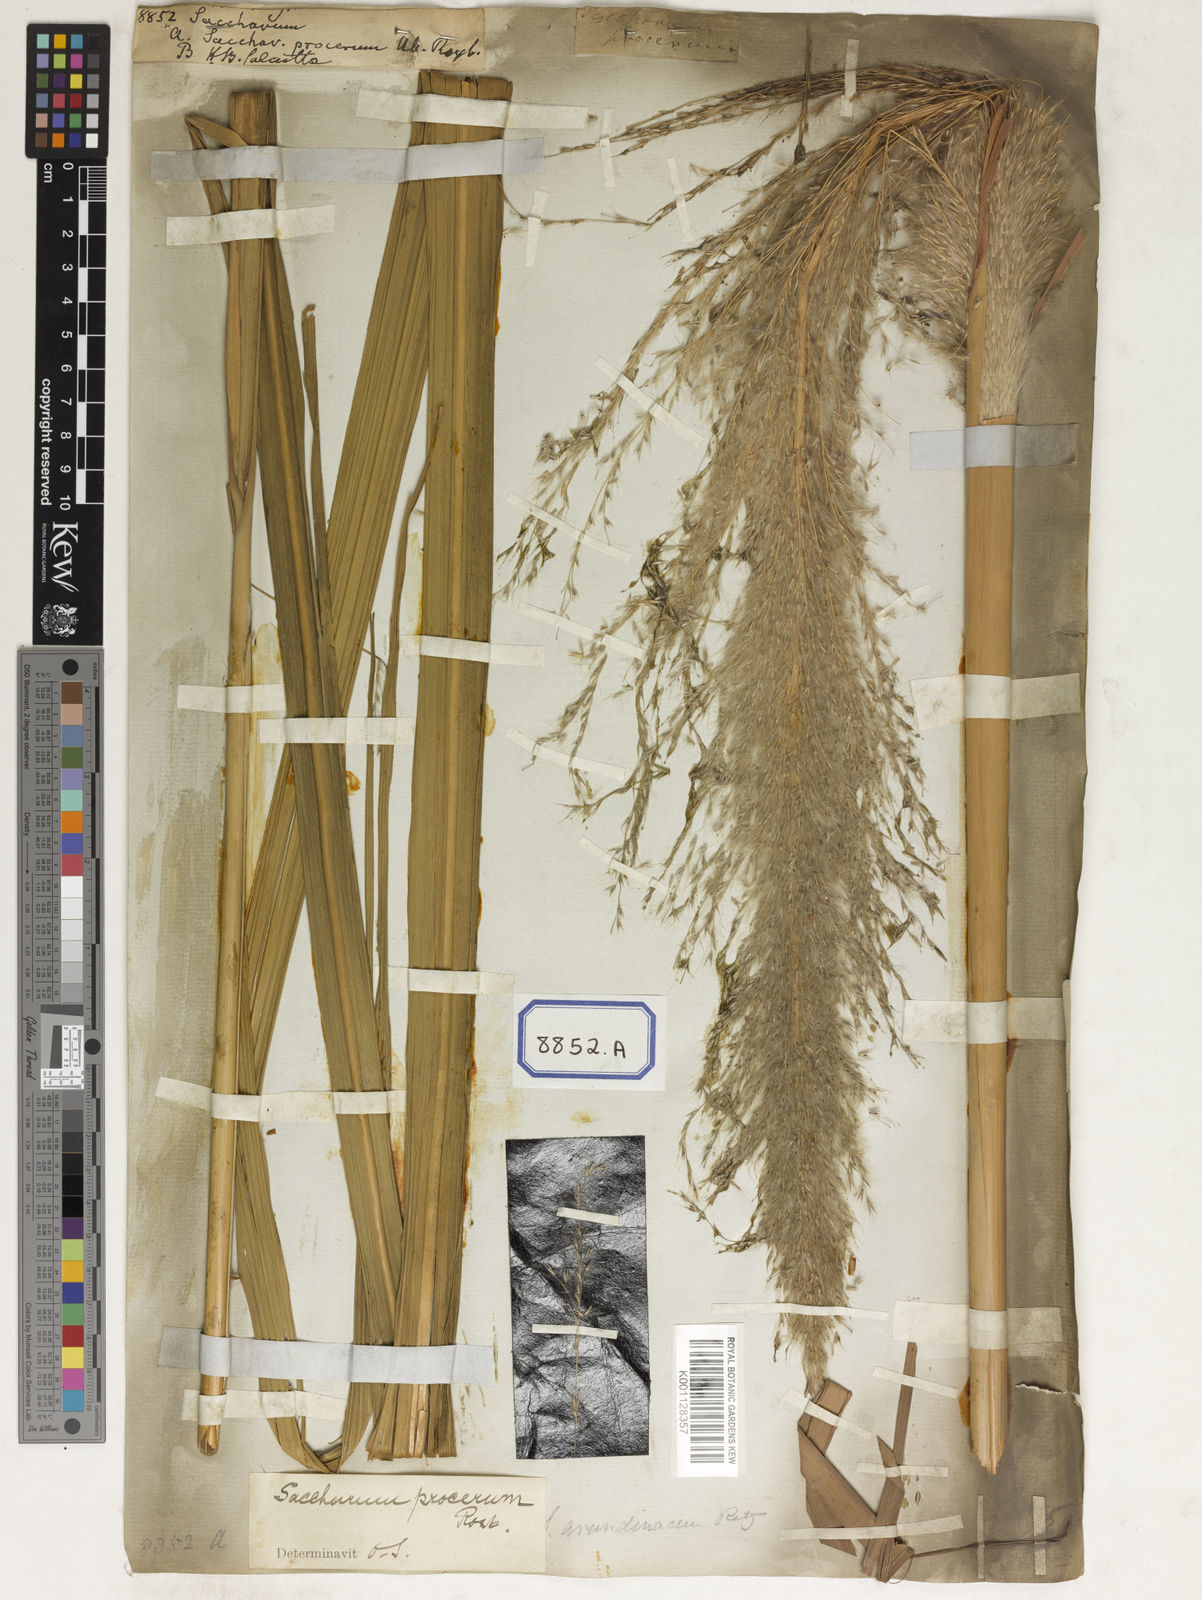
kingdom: Plantae
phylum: Tracheophyta
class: Liliopsida
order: Poales
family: Poaceae
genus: Saccharum
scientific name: Saccharum
